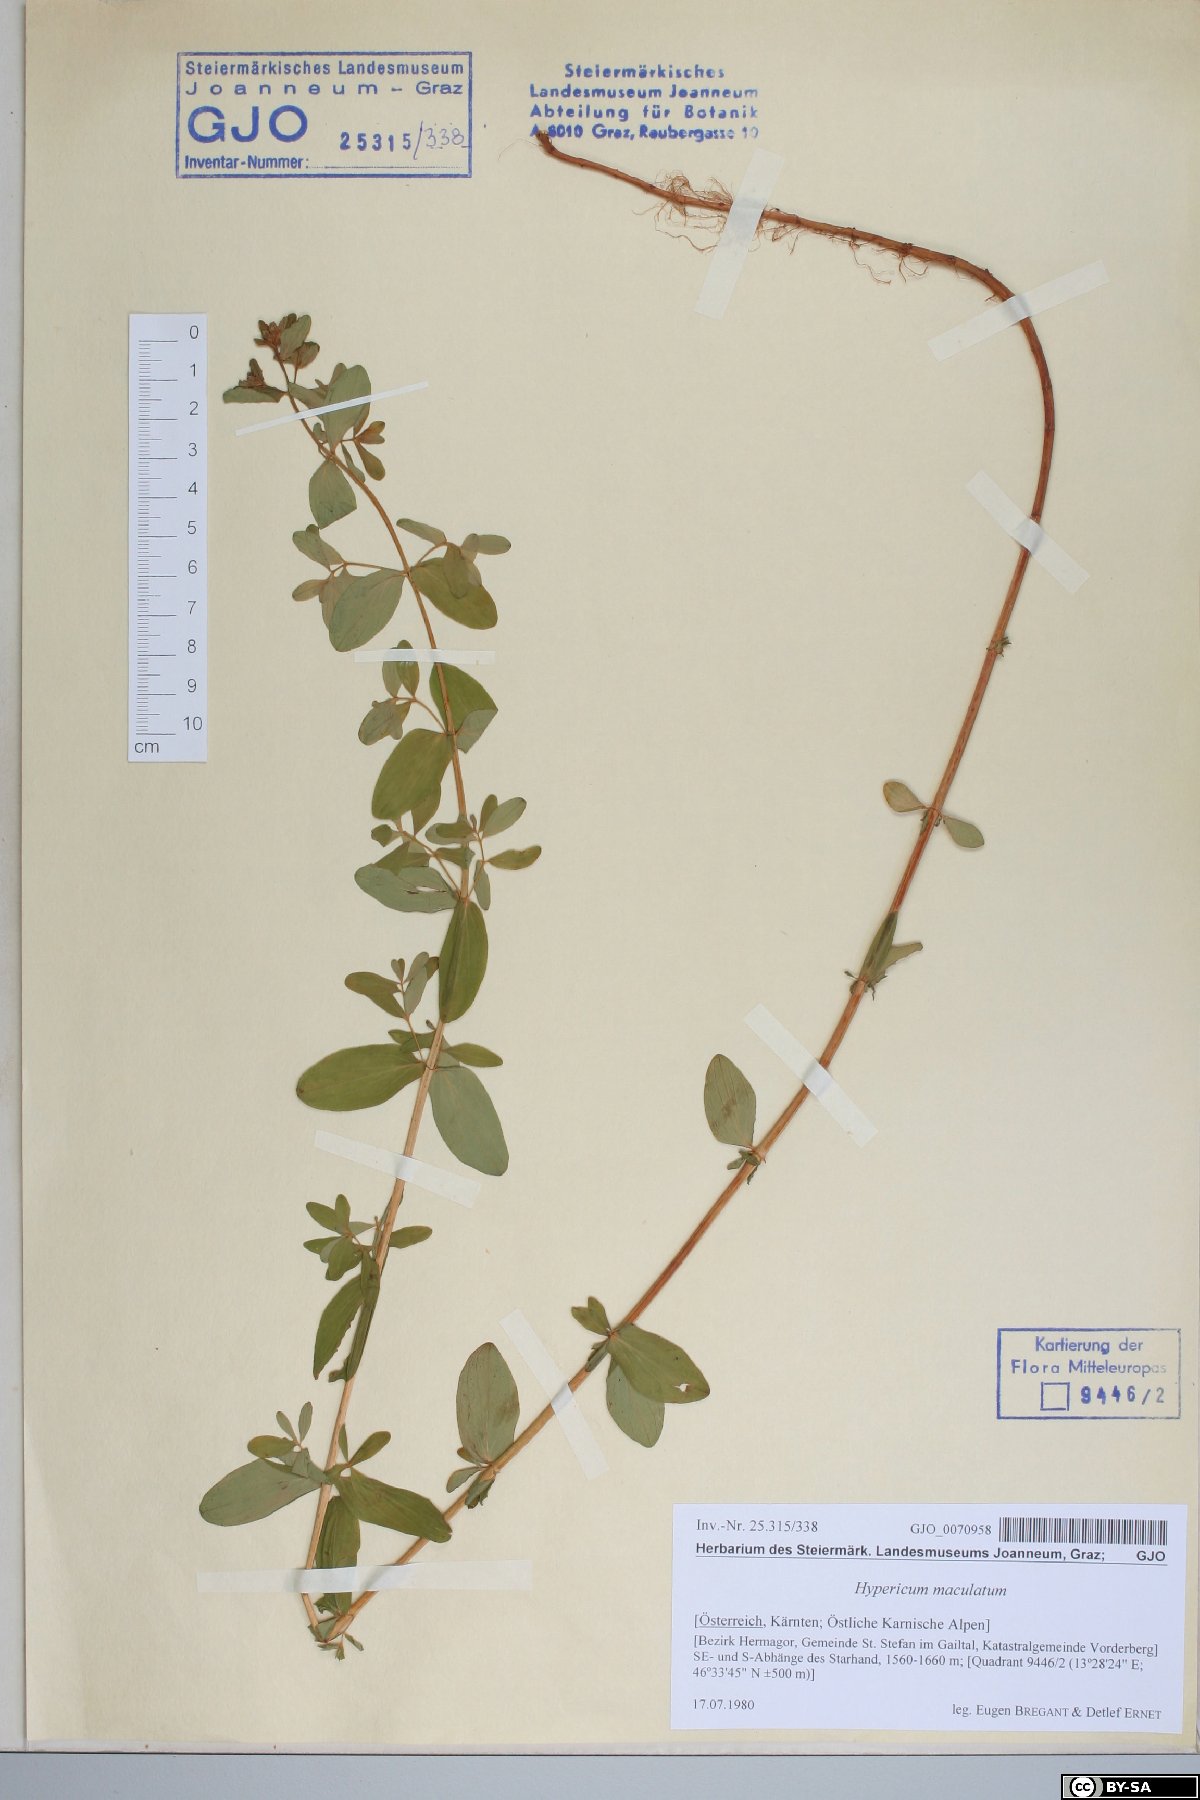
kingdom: Plantae
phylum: Tracheophyta
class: Magnoliopsida
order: Malpighiales
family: Hypericaceae
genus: Hypericum
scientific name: Hypericum maculatum
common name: Imperforate st. john's-wort
